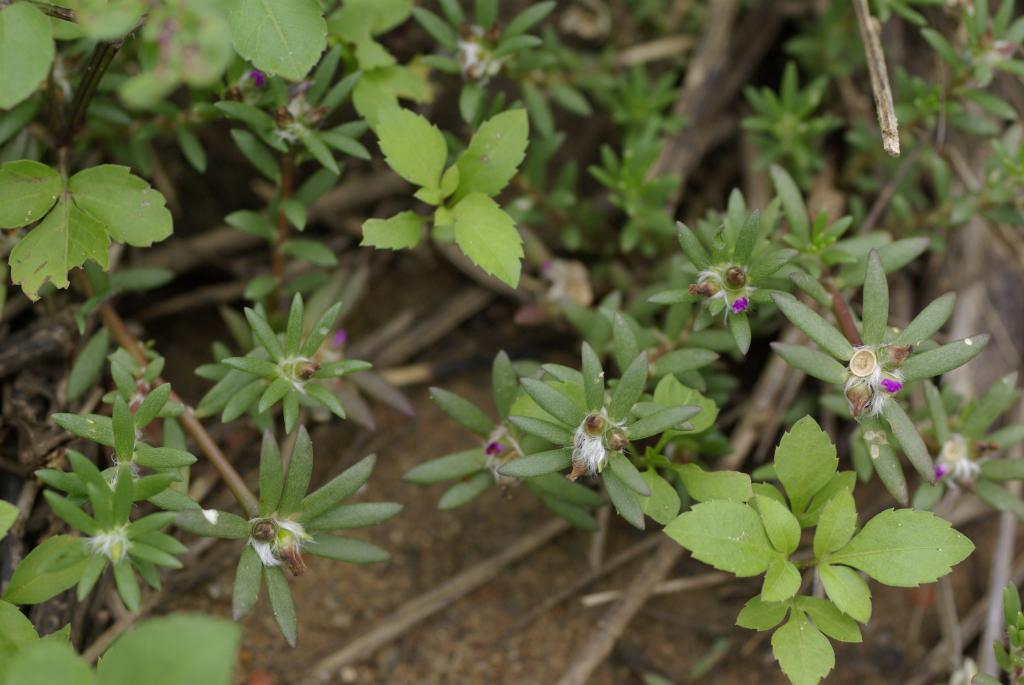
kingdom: Plantae
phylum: Tracheophyta
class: Magnoliopsida
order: Caryophyllales
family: Portulacaceae
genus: Portulaca
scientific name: Portulaca pilosa
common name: Kiss me quick
